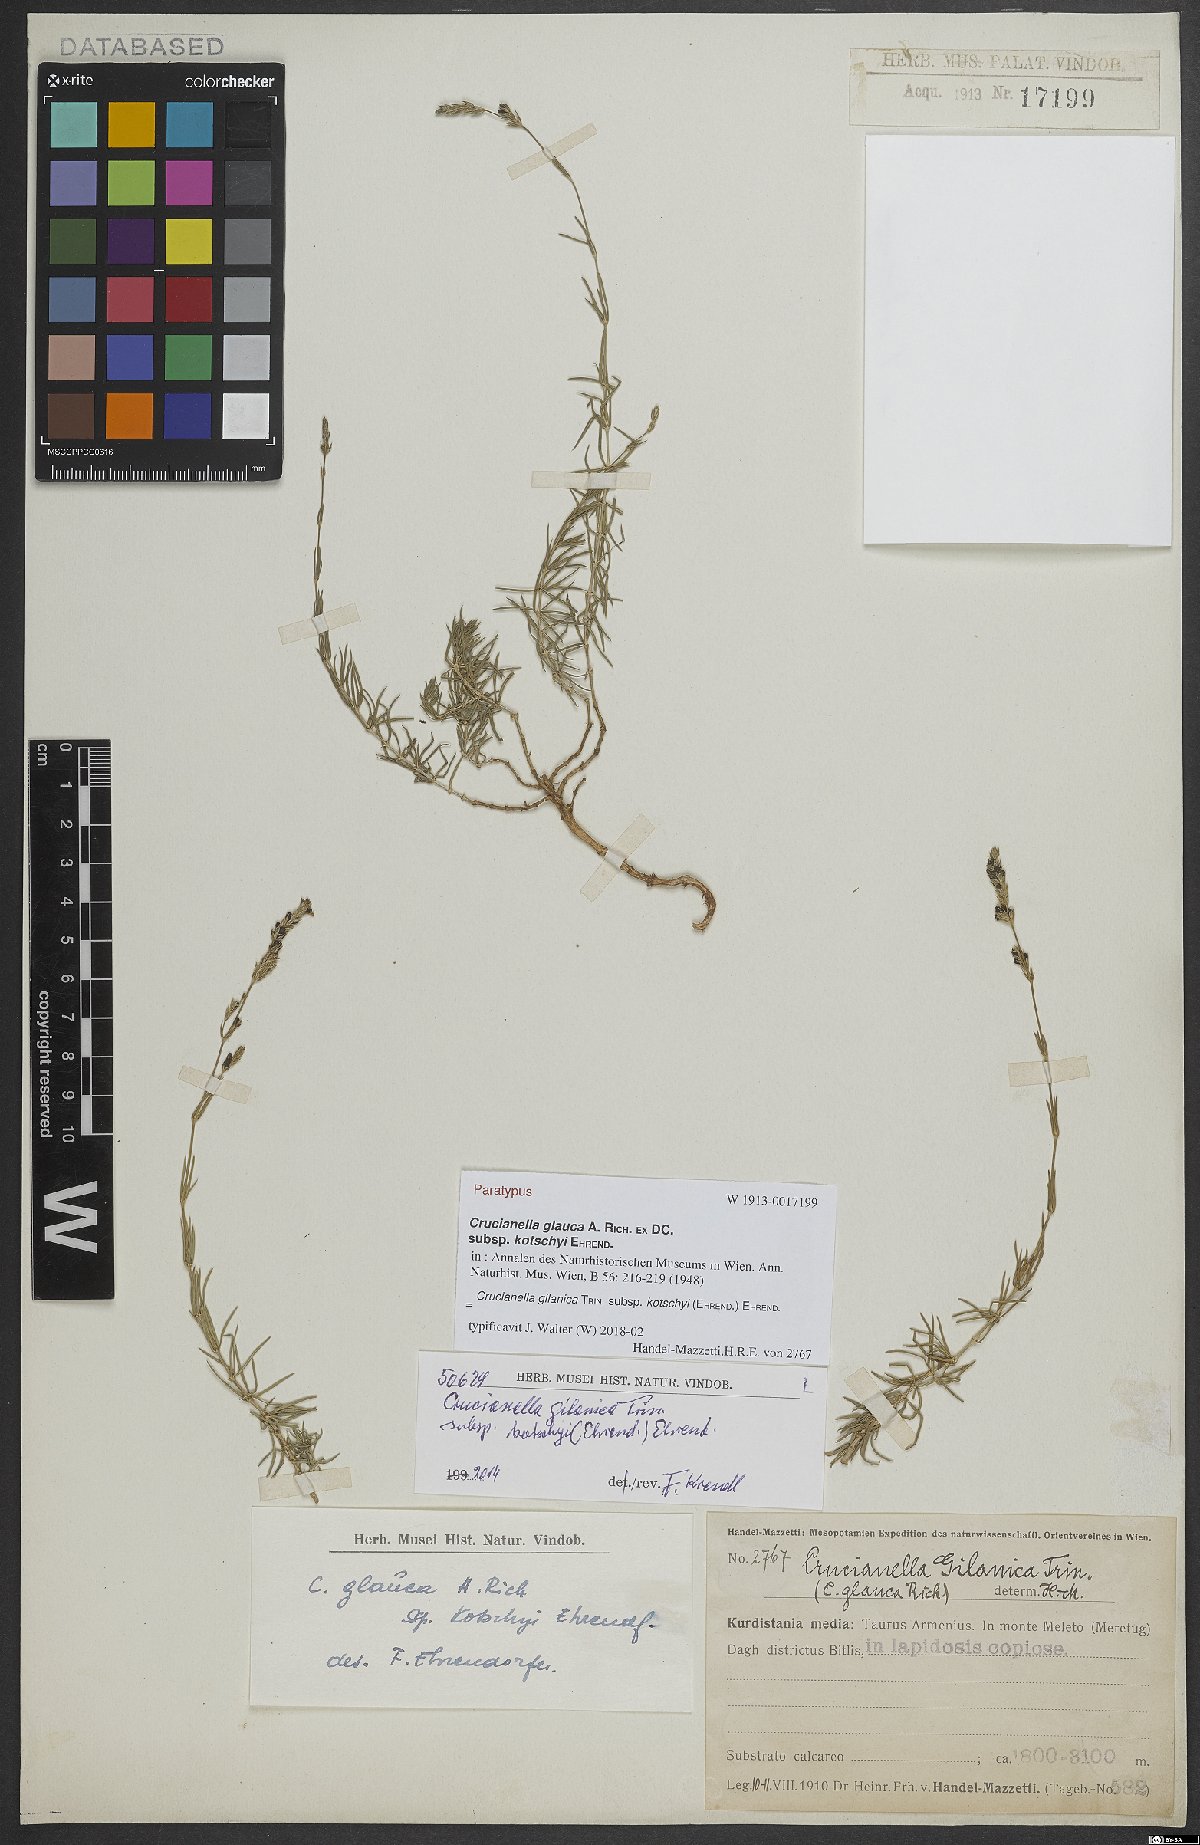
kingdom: Plantae
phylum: Tracheophyta
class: Magnoliopsida
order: Gentianales
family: Rubiaceae
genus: Crucianella
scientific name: Crucianella gilanica
